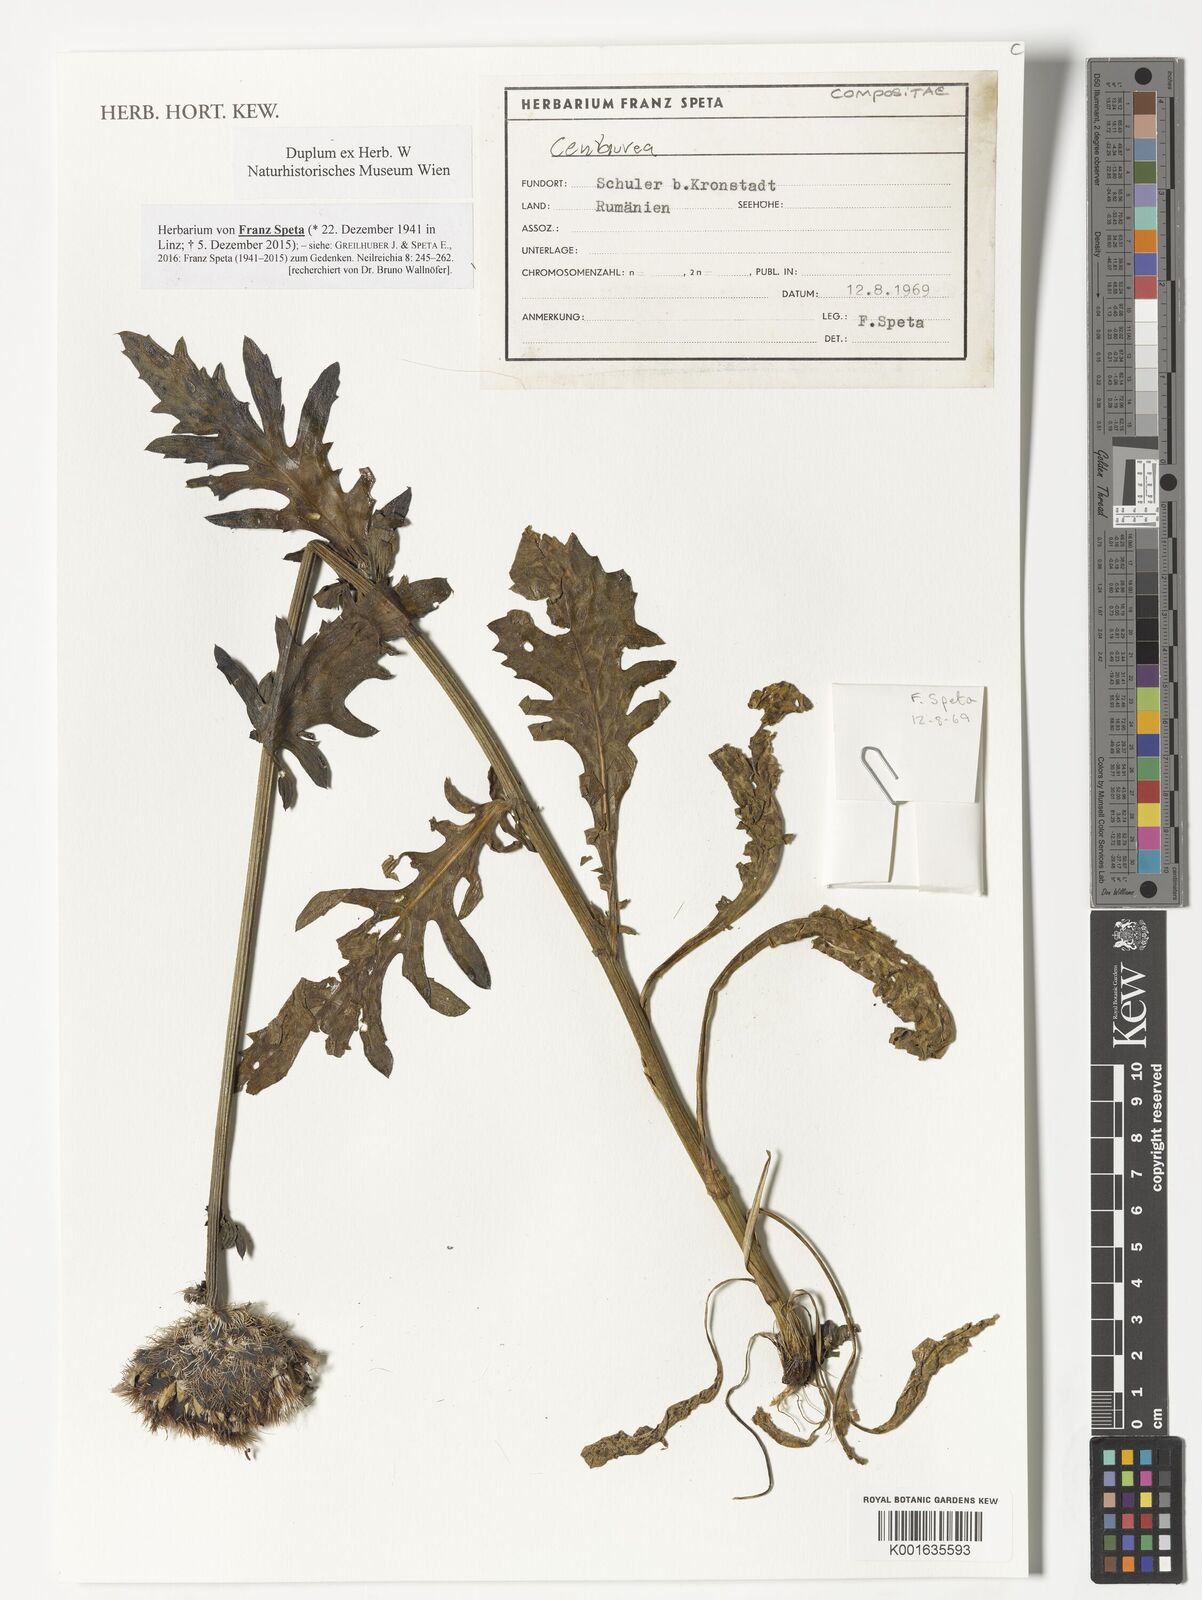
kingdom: Plantae
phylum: Tracheophyta
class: Magnoliopsida
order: Asterales
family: Asteraceae
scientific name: Asteraceae
